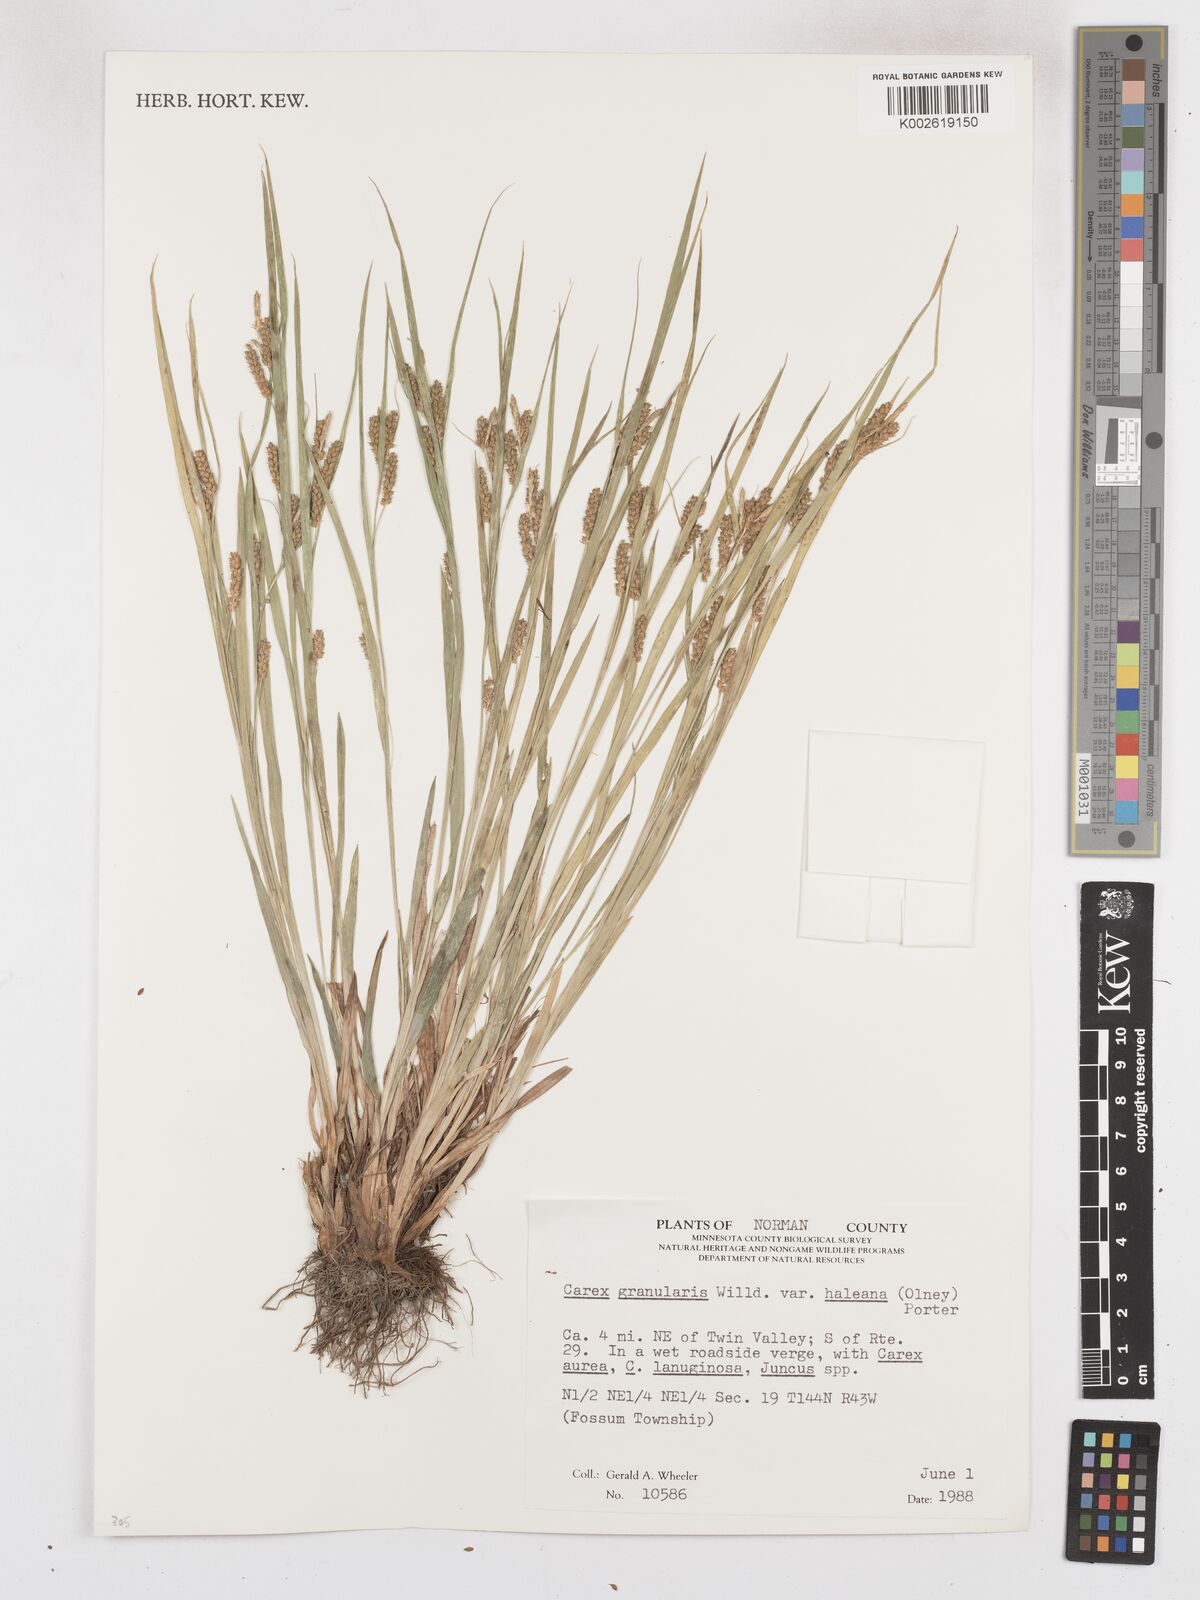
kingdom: Plantae
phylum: Tracheophyta
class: Liliopsida
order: Poales
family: Cyperaceae
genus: Carex
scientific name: Carex granularis
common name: Granular sedge
